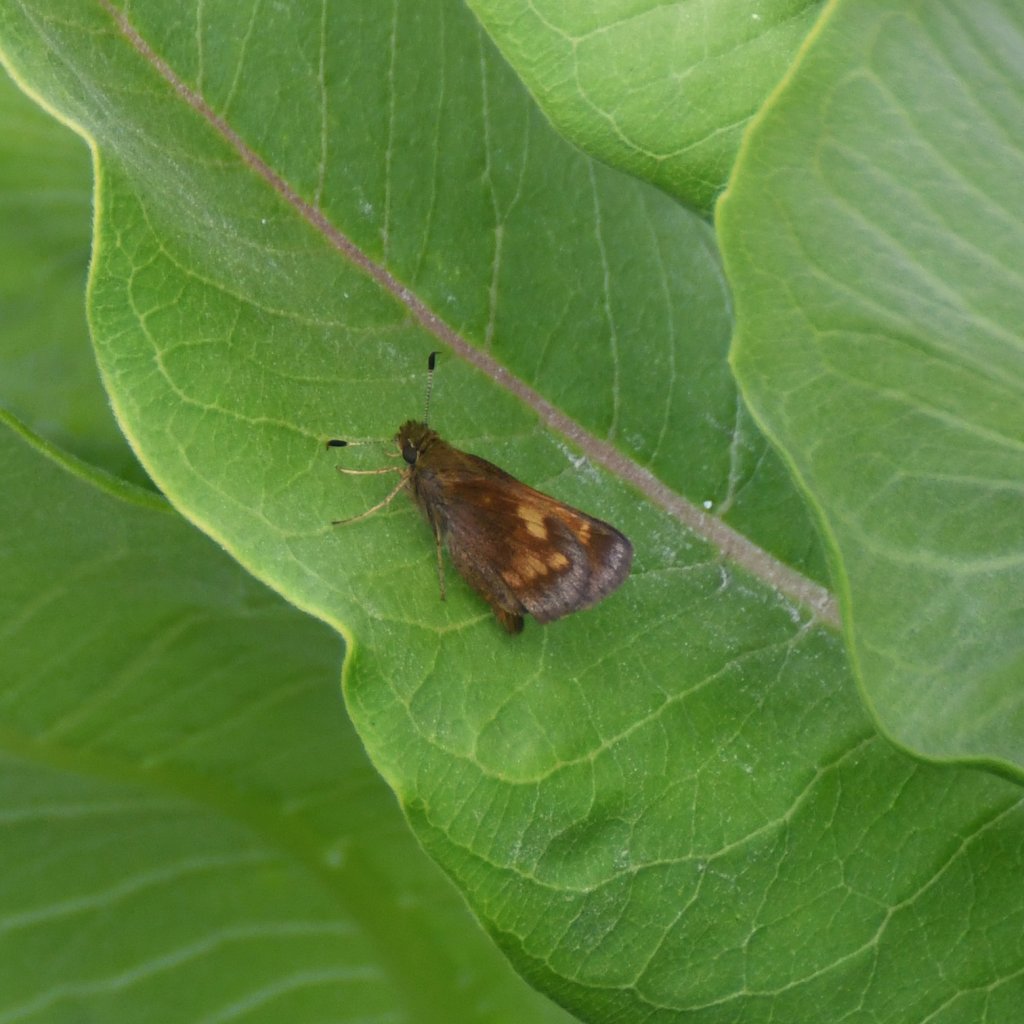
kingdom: Animalia
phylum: Arthropoda
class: Insecta
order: Lepidoptera
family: Hesperiidae
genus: Lon
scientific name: Lon hobomok
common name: Hobomok Skipper
